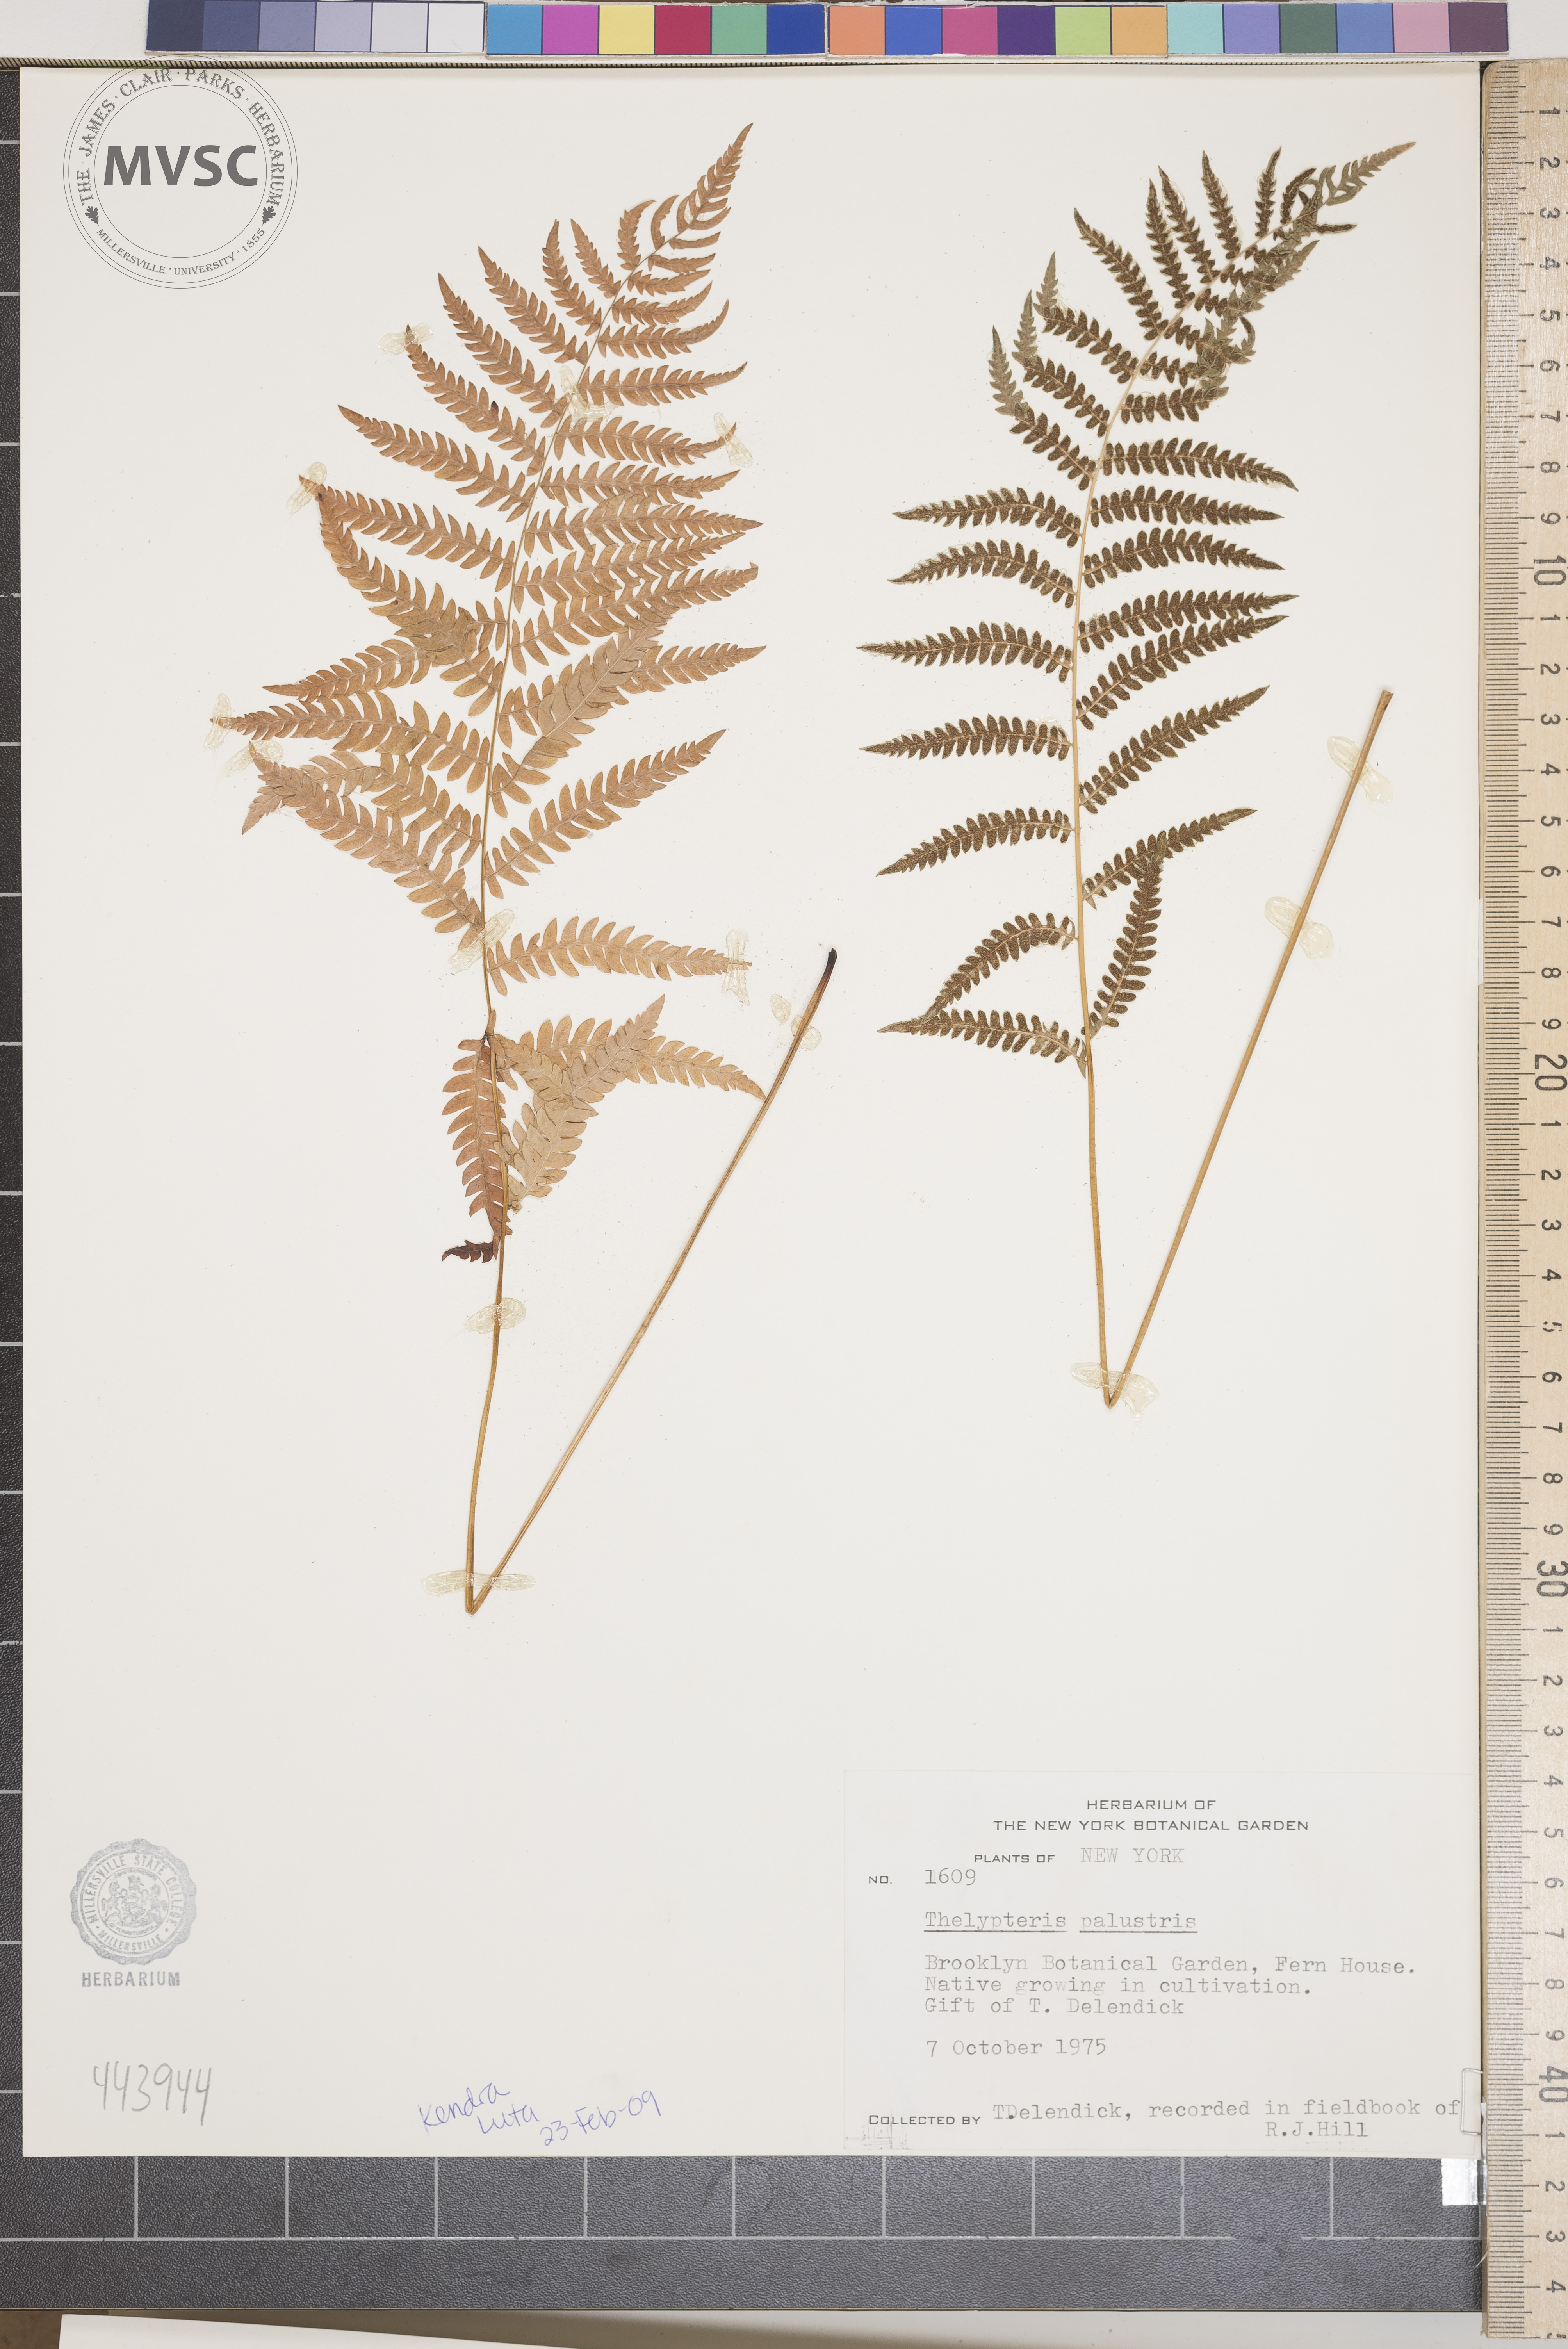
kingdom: Plantae
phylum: Tracheophyta
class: Polypodiopsida
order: Polypodiales
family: Thelypteridaceae
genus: Thelypteris
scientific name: Thelypteris palustris
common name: Marsh fern
